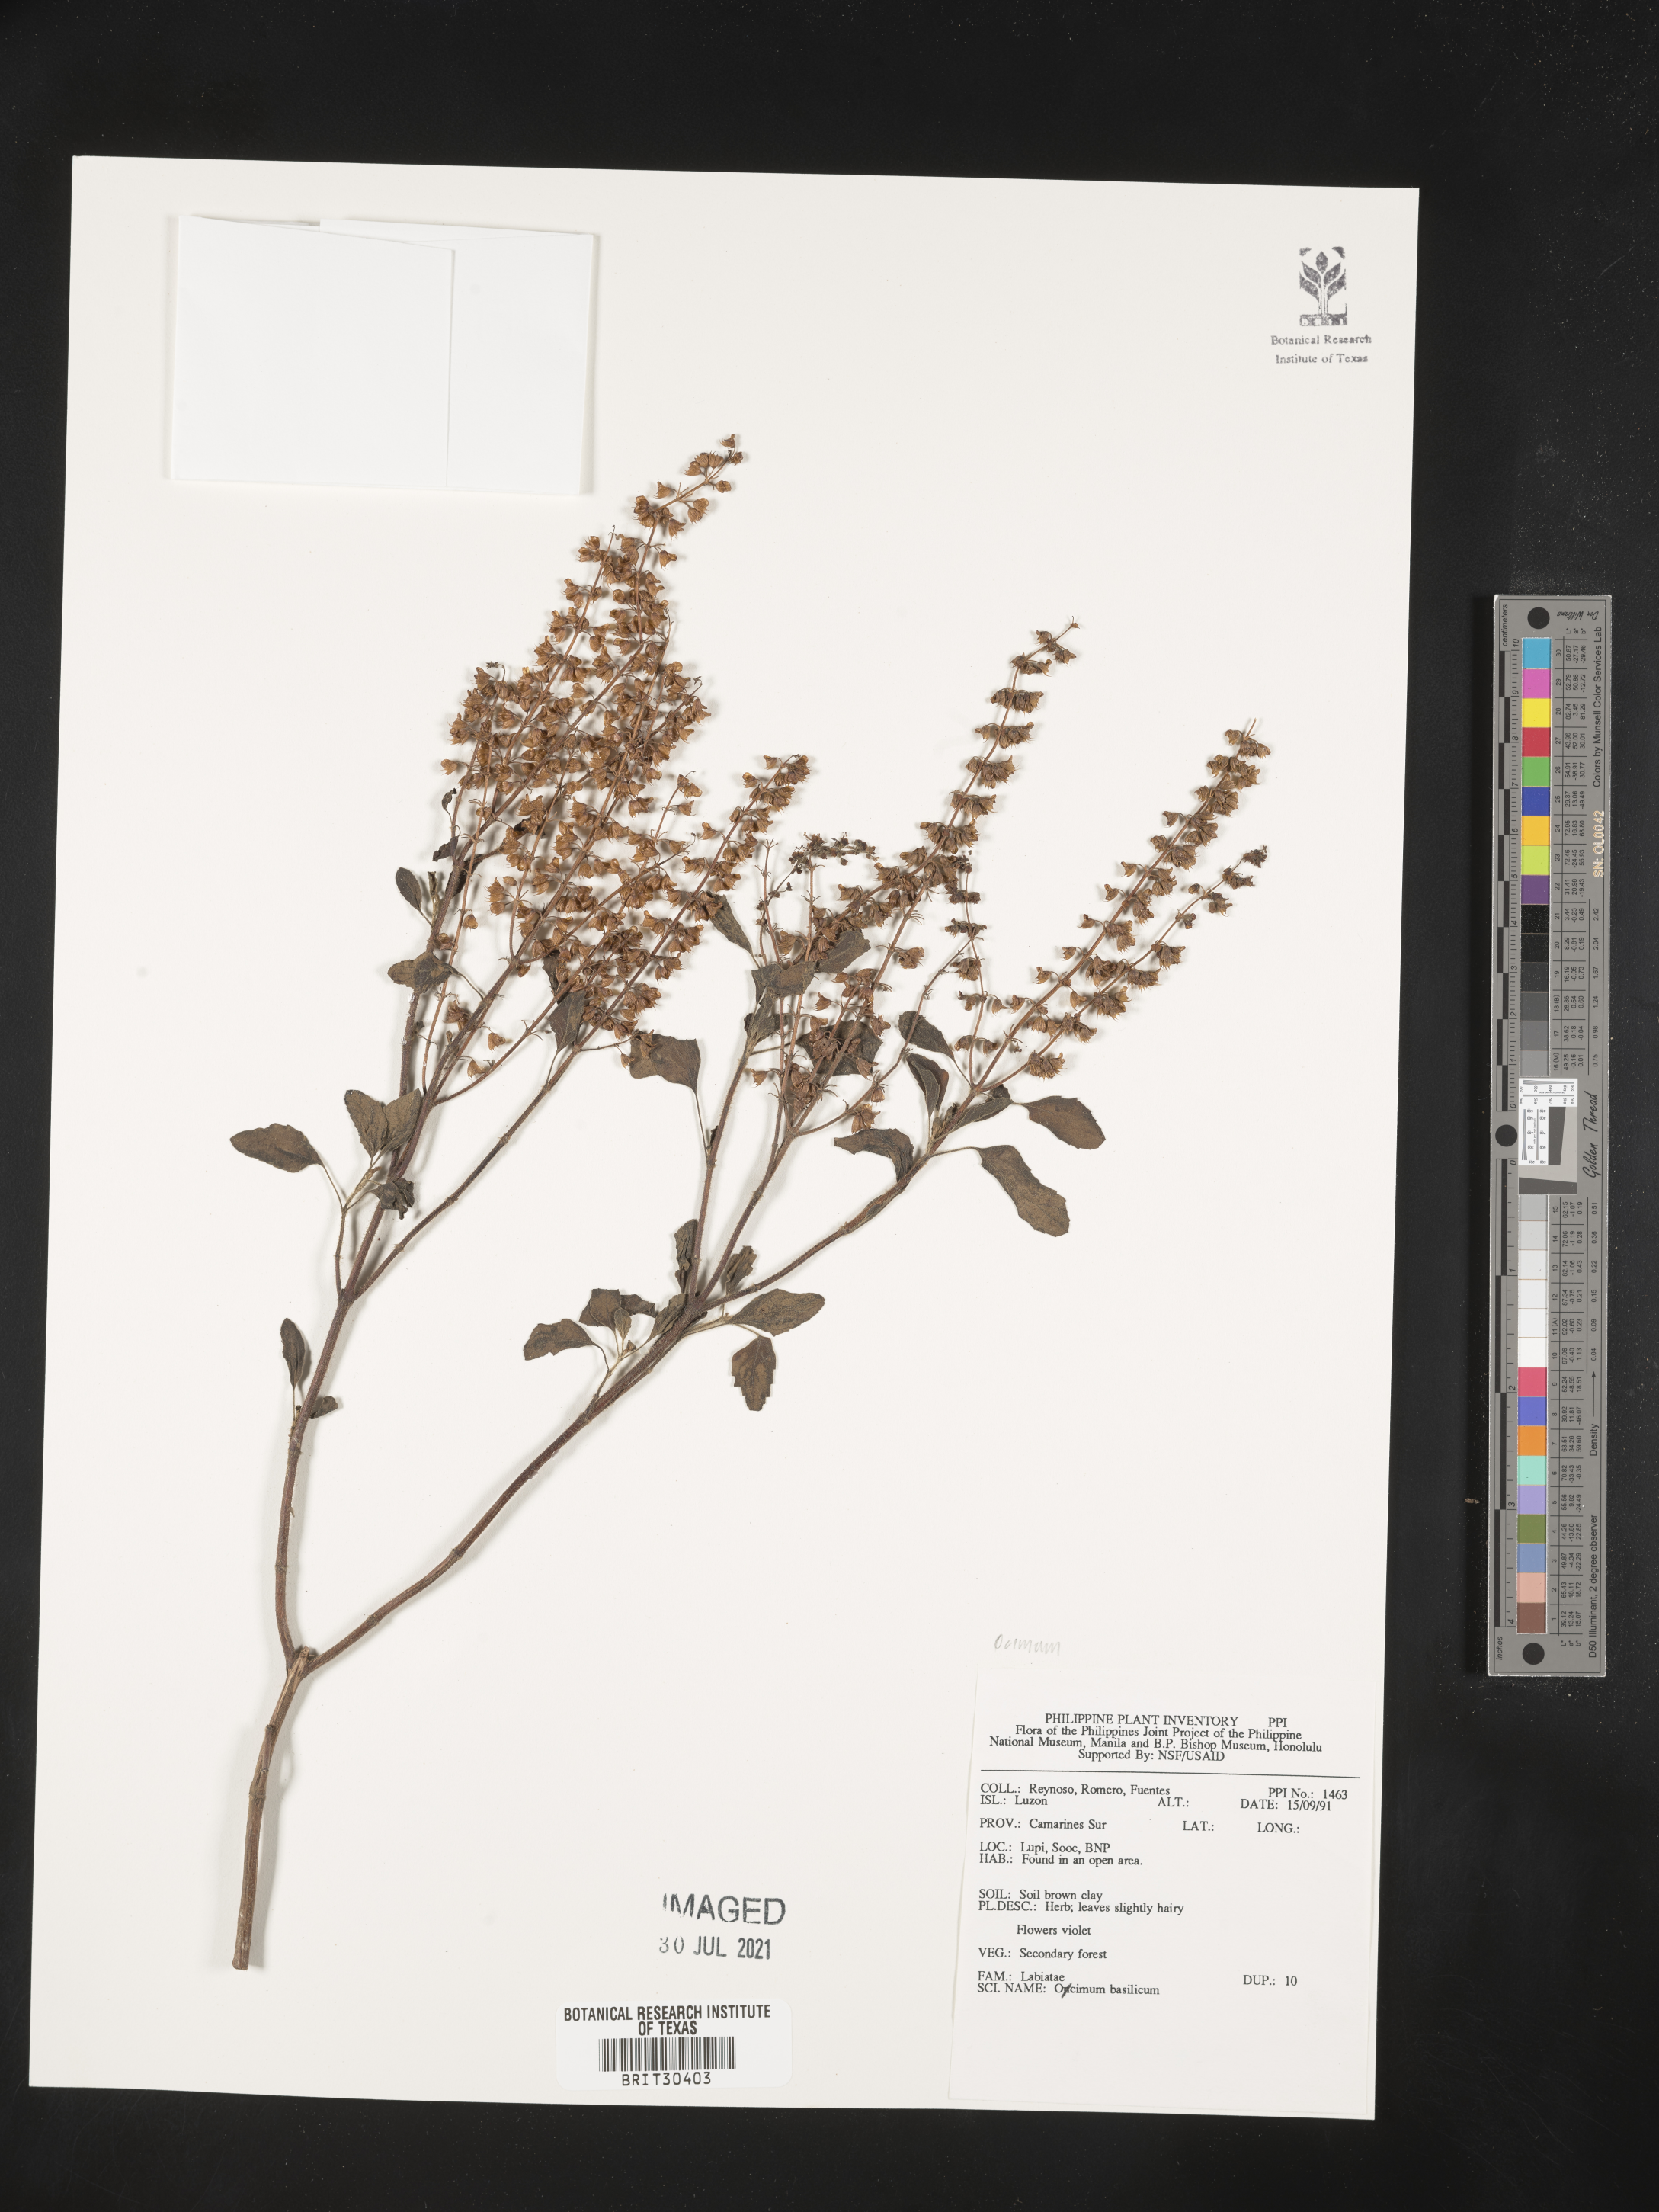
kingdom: Plantae
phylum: Tracheophyta
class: Magnoliopsida
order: Lamiales
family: Lamiaceae
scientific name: Lamiaceae
